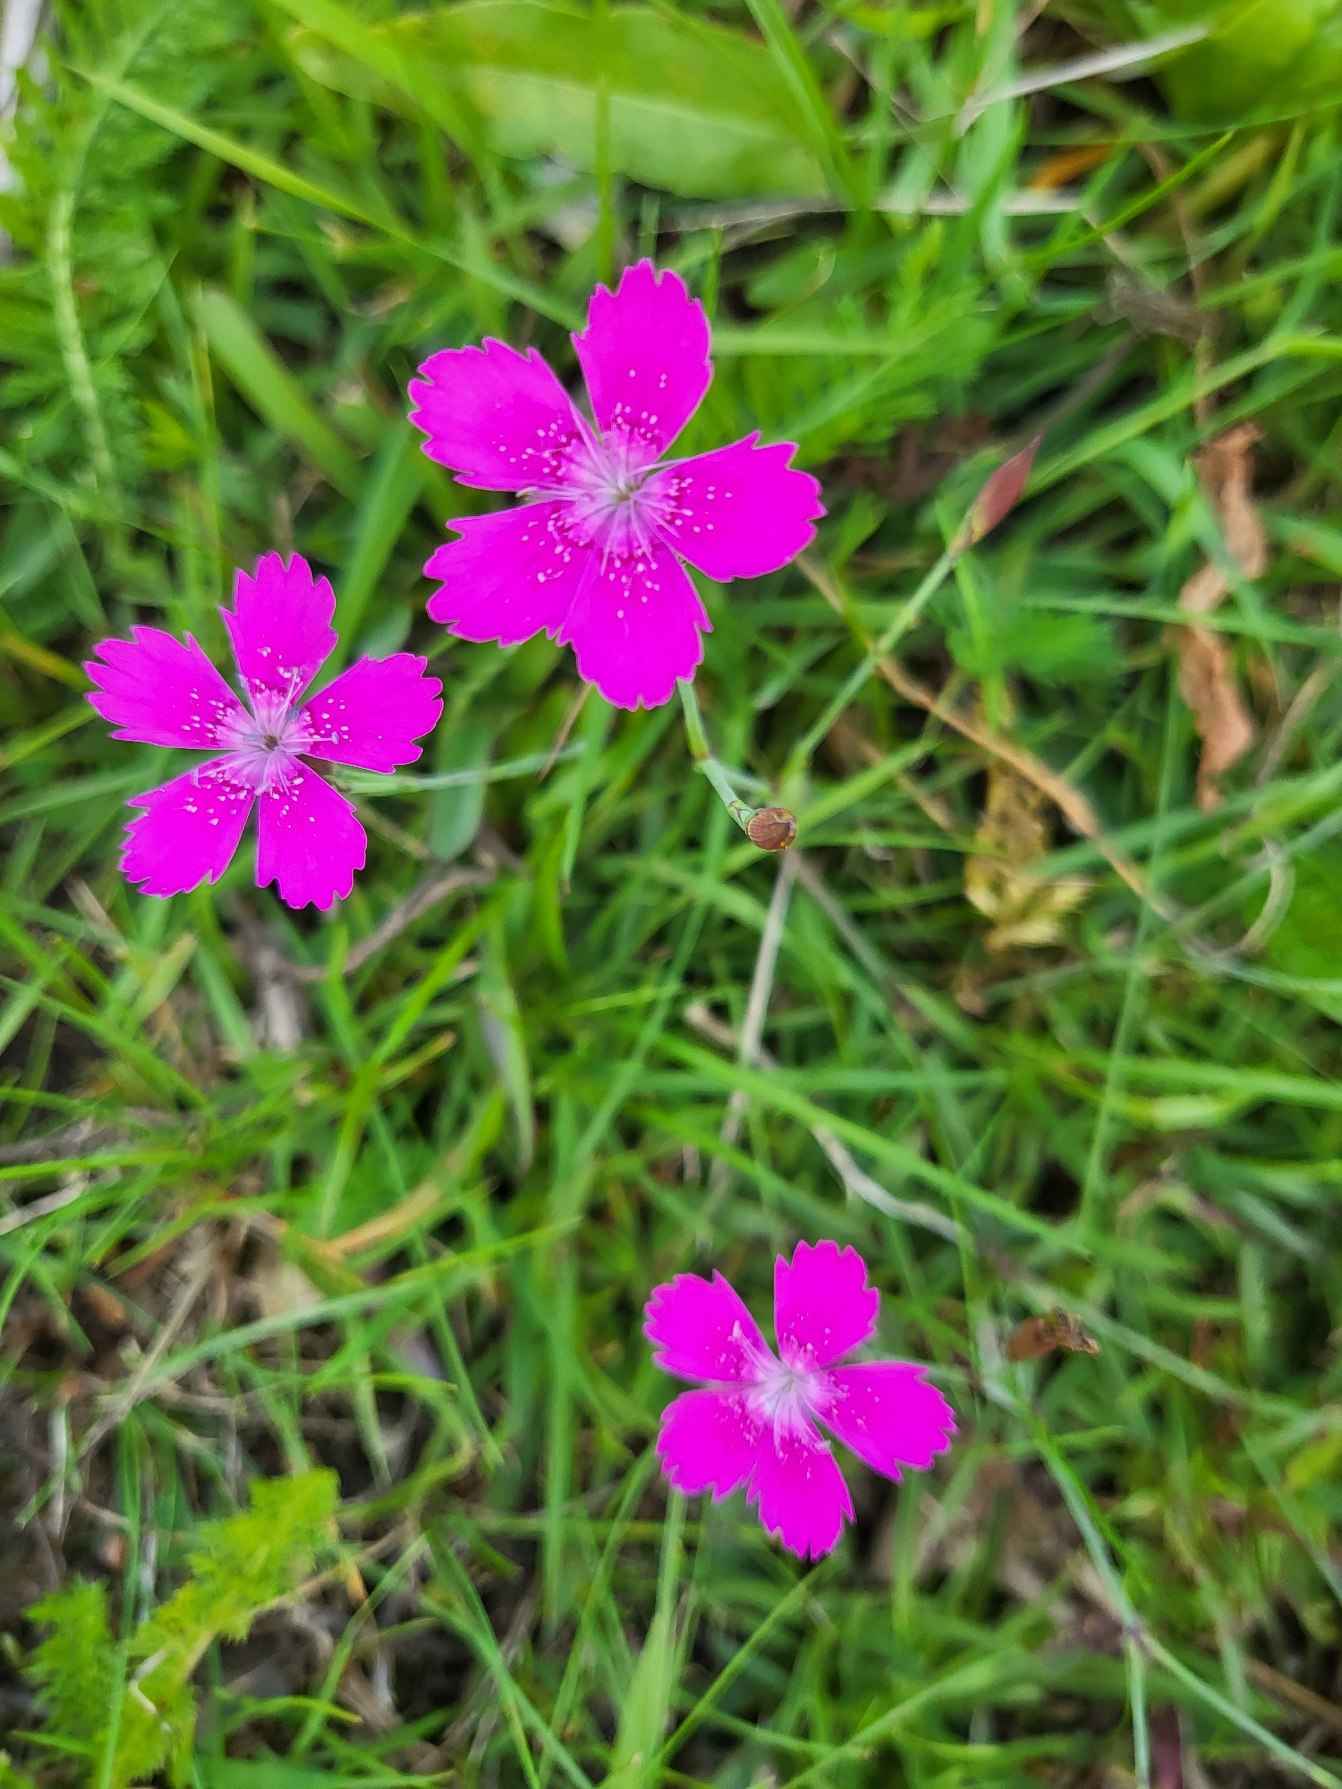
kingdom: Plantae
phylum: Tracheophyta
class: Magnoliopsida
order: Caryophyllales
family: Caryophyllaceae
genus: Dianthus
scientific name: Dianthus deltoides
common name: Bakke-nellike
